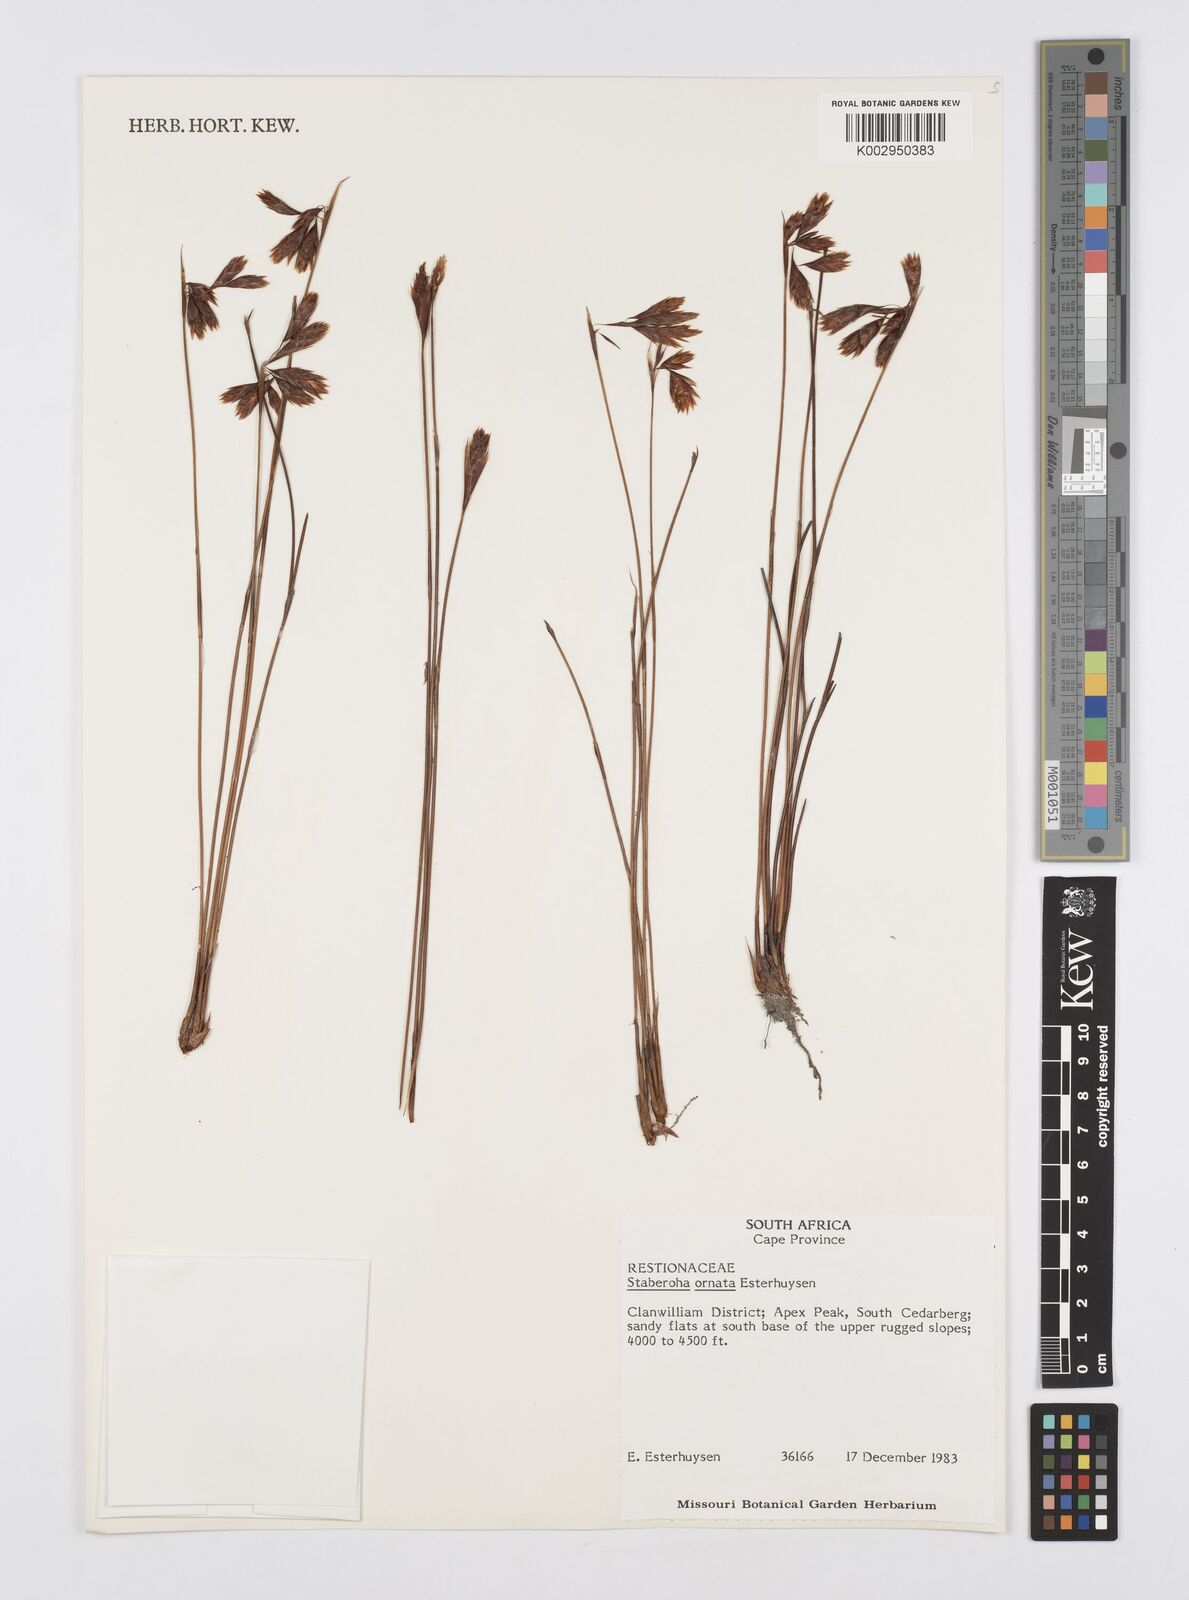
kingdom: Plantae
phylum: Tracheophyta
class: Liliopsida
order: Poales
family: Restionaceae
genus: Staberoha
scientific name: Staberoha ornata
